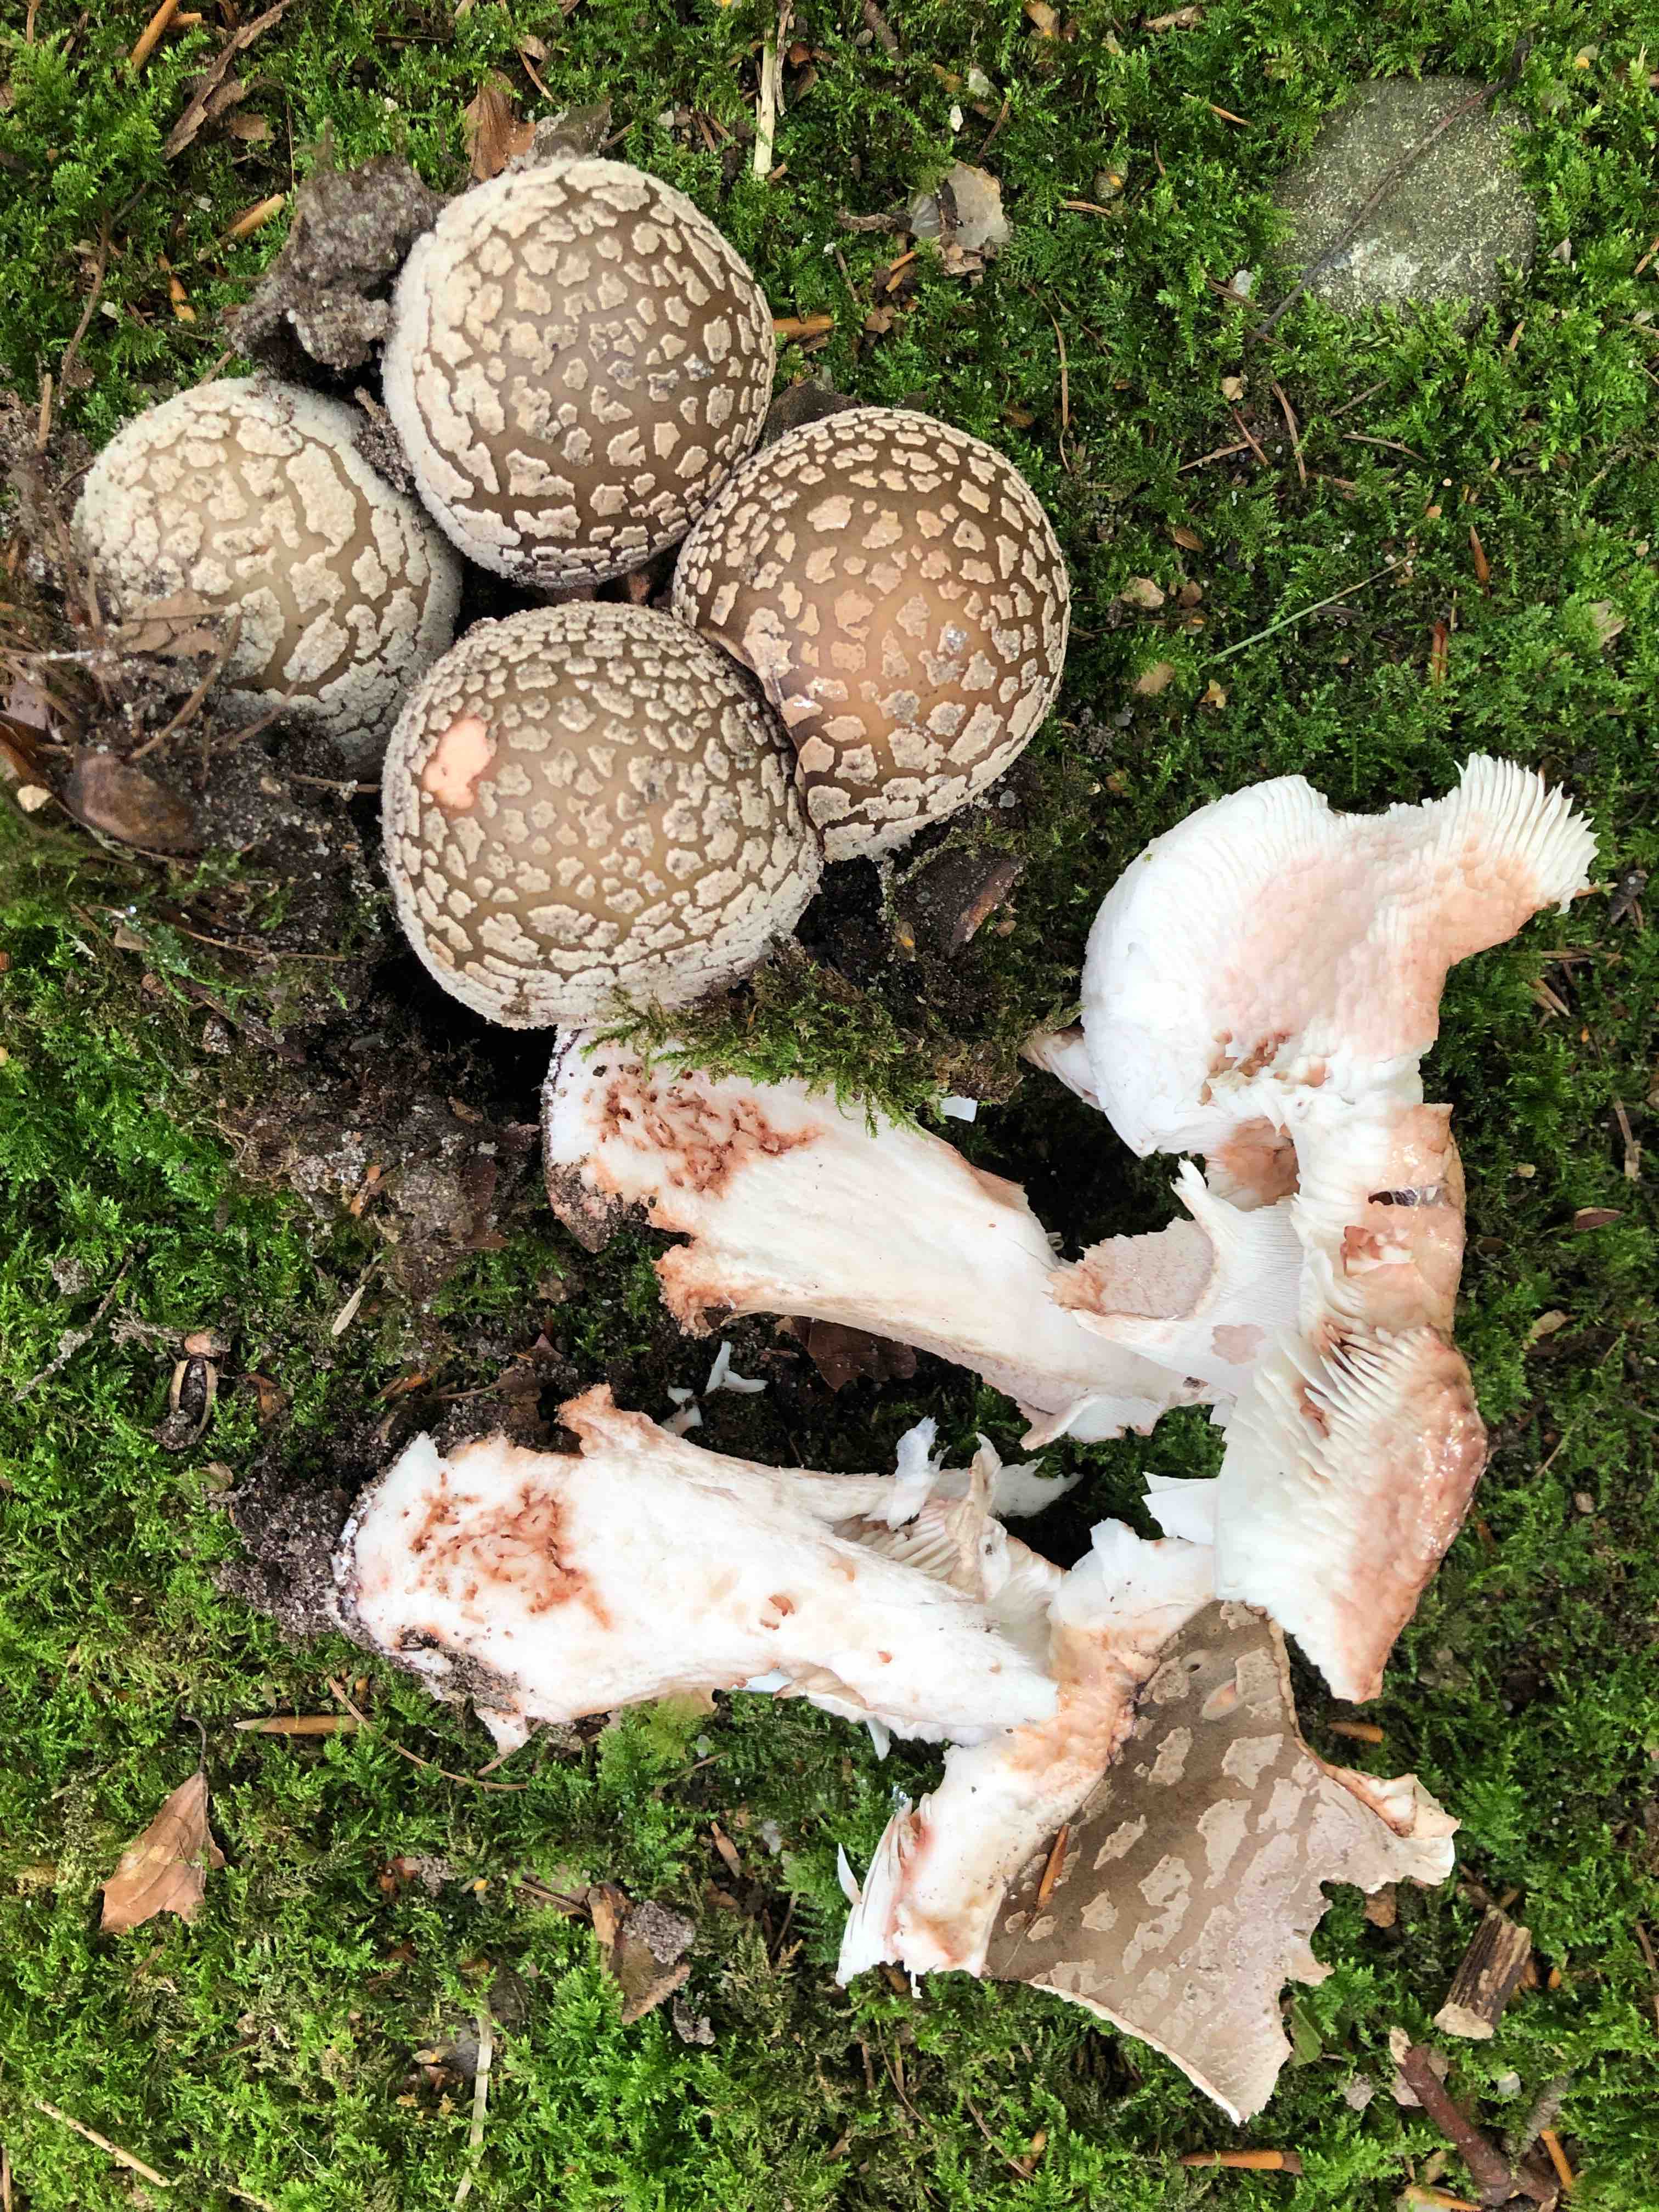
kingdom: Fungi
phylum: Basidiomycota
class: Agaricomycetes
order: Agaricales
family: Amanitaceae
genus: Amanita
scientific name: Amanita rubescens
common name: rødmende fluesvamp
